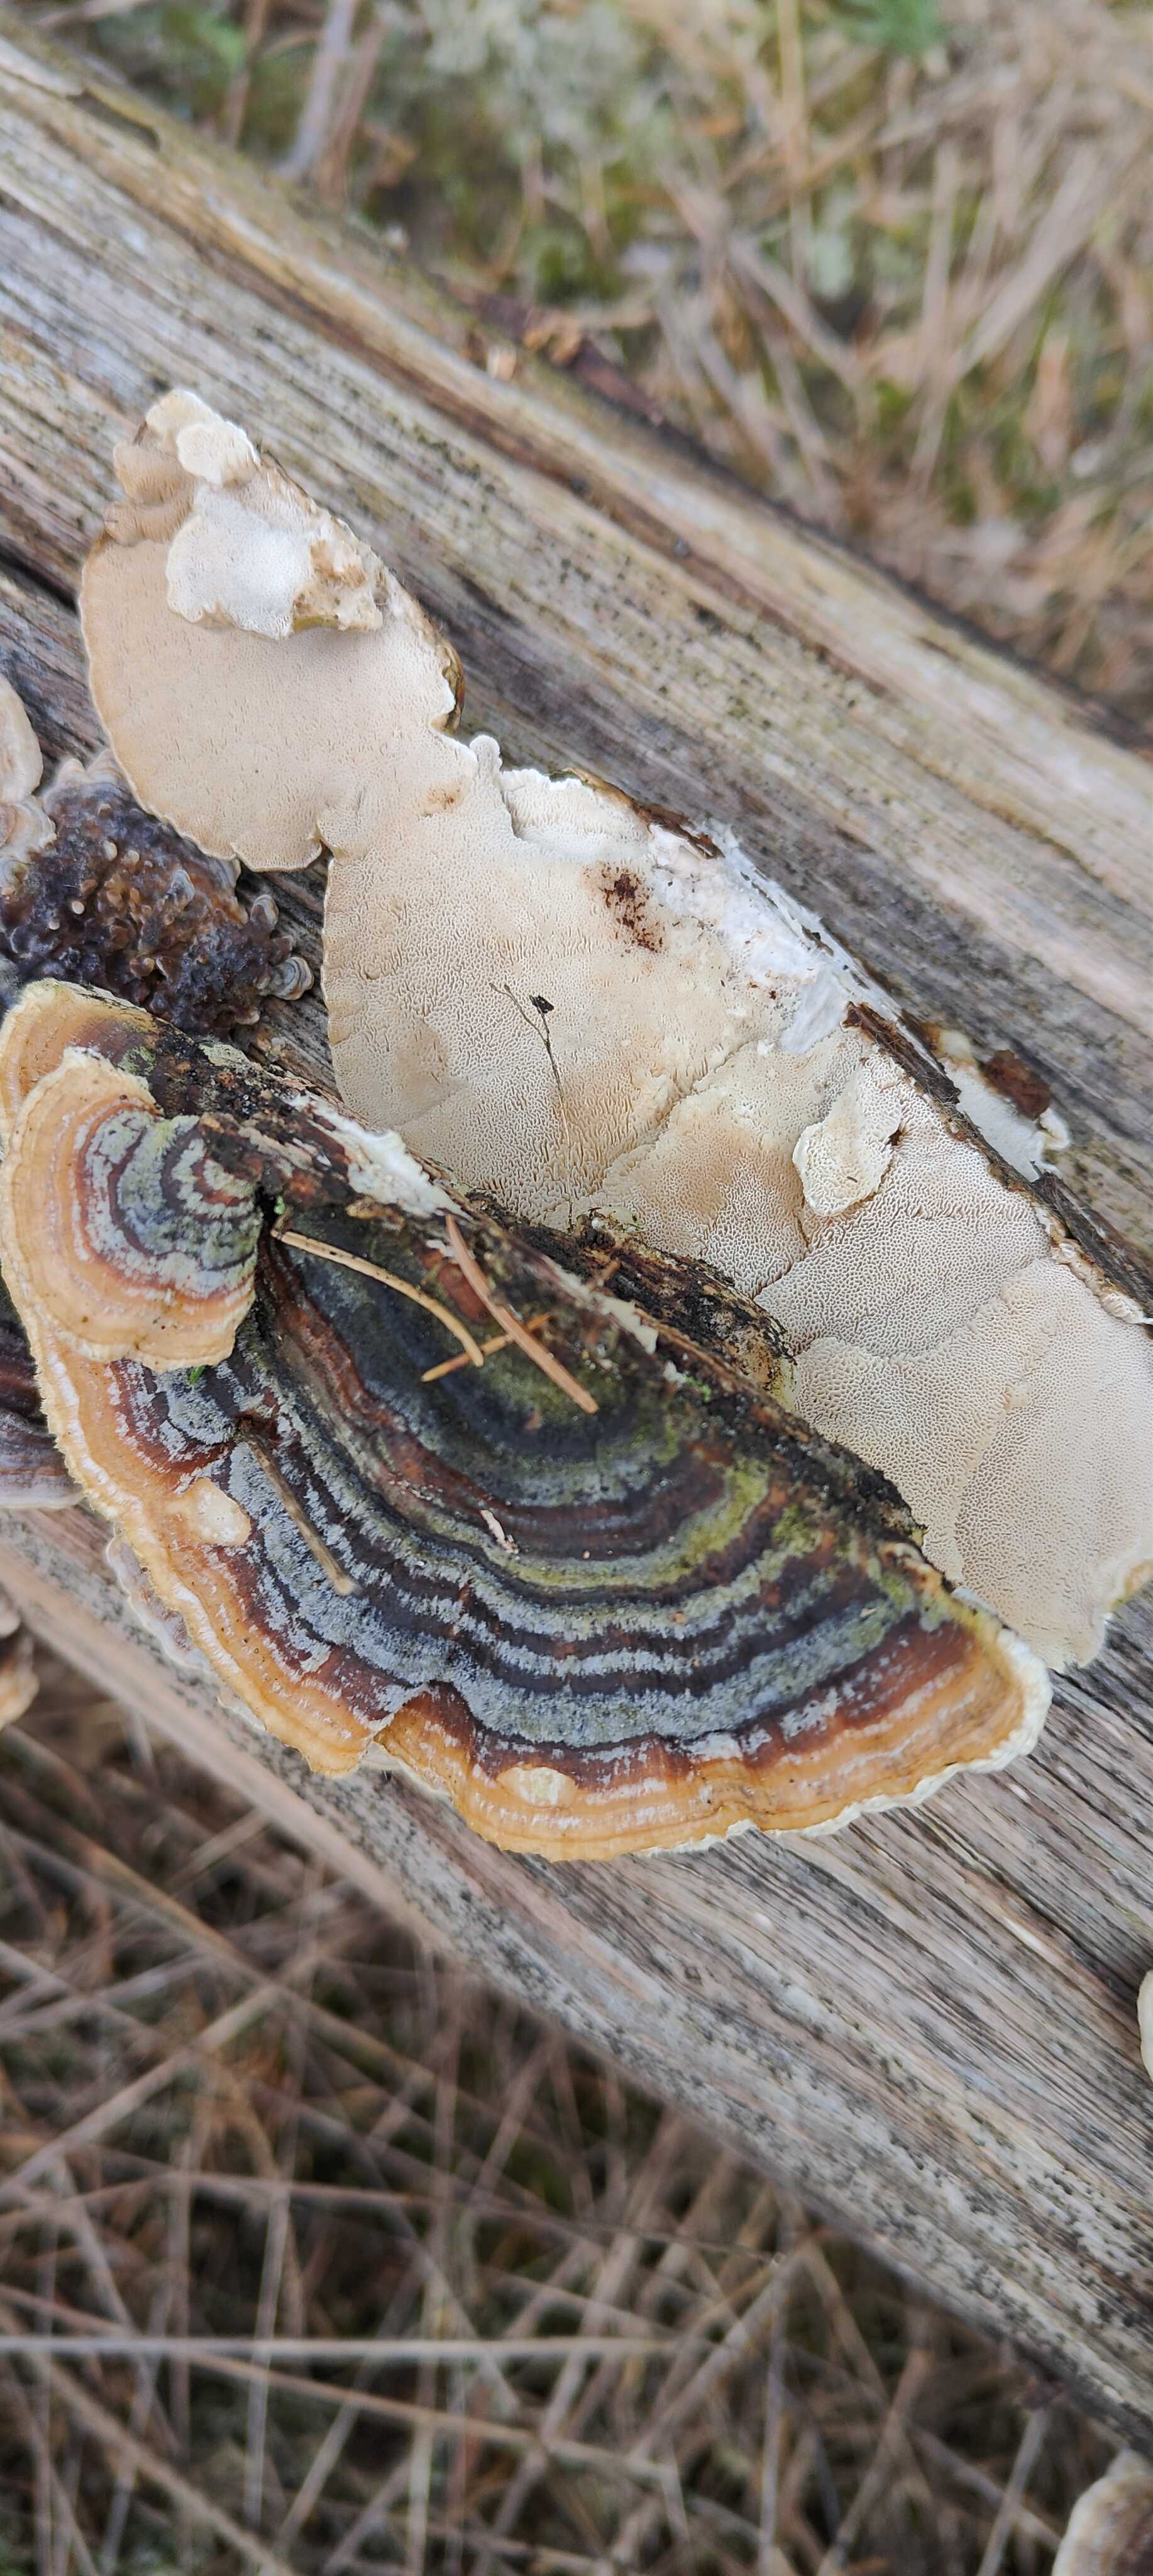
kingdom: Fungi
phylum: Basidiomycota
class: Agaricomycetes
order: Polyporales
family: Polyporaceae
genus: Trametes
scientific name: Trametes versicolor
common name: broget læderporesvamp
